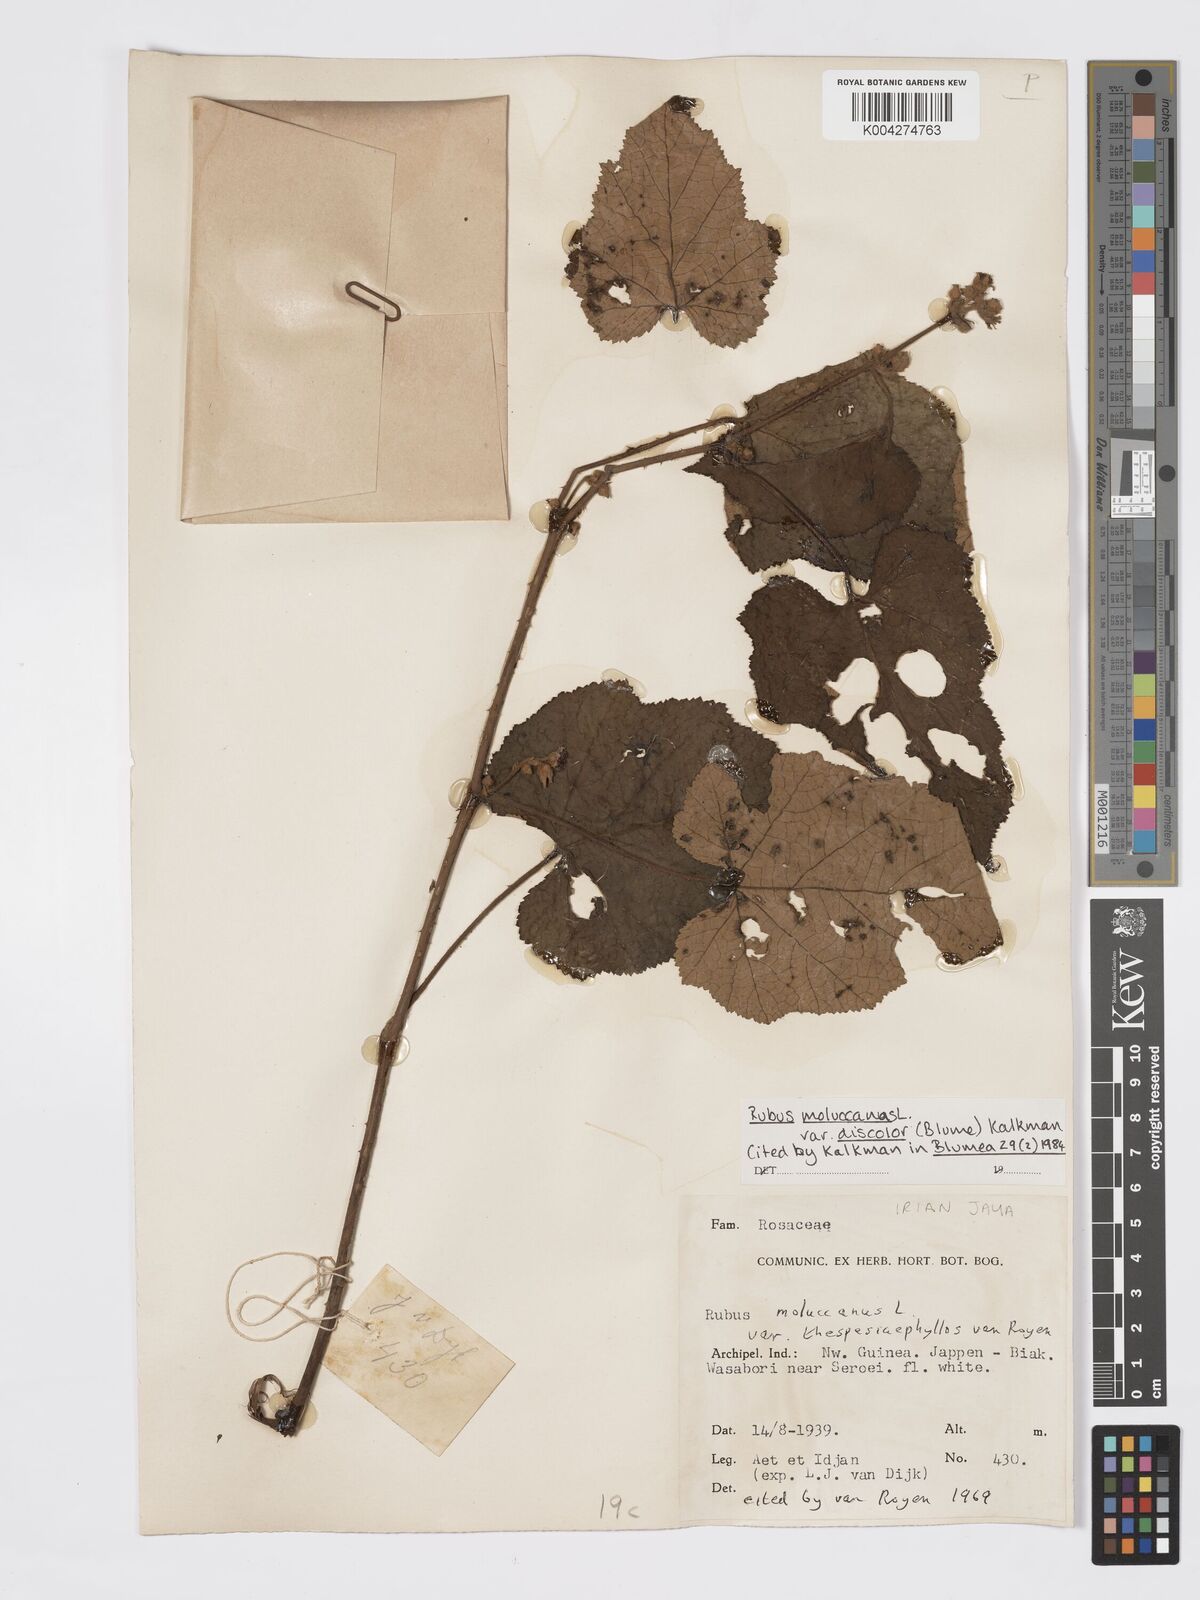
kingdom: Plantae
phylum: Tracheophyta
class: Magnoliopsida
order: Rosales
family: Rosaceae
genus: Rubus
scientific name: Rubus moluccanus
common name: Wild raspberry
